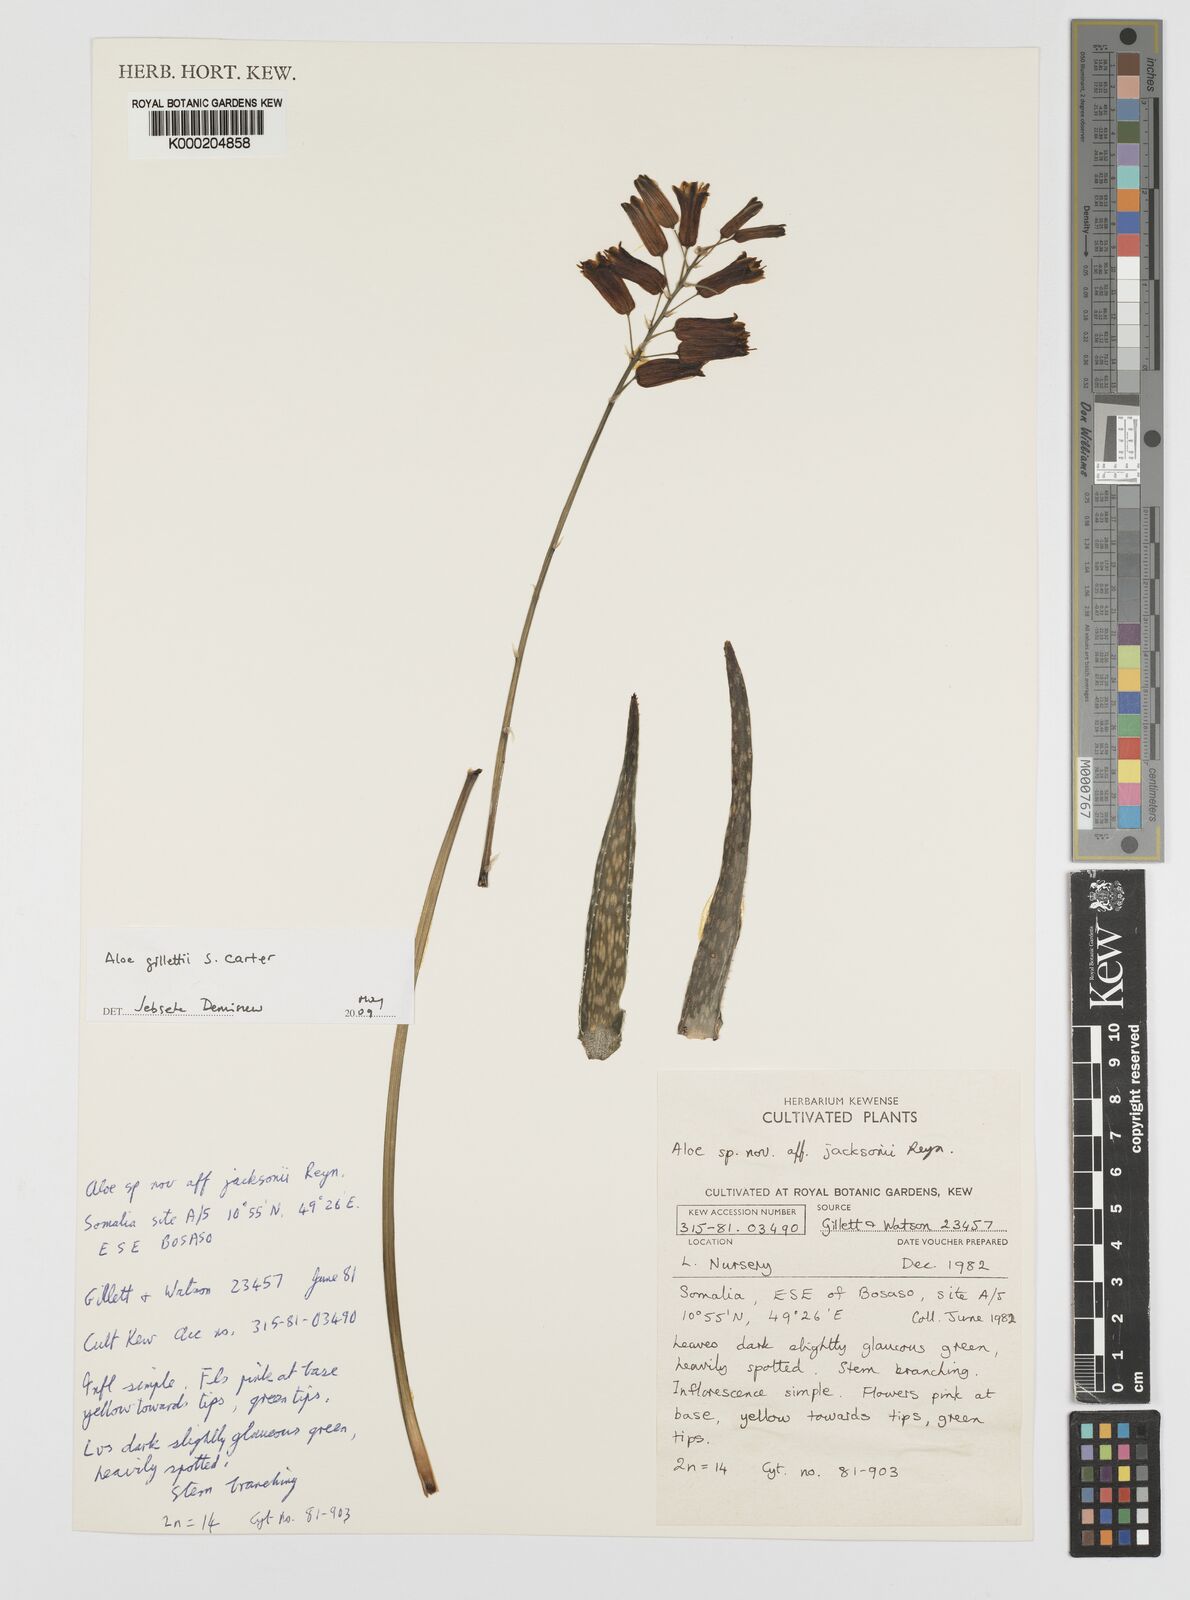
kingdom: Plantae
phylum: Tracheophyta
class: Liliopsida
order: Asparagales
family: Asphodelaceae
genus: Aloe
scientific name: Aloe gillettii
